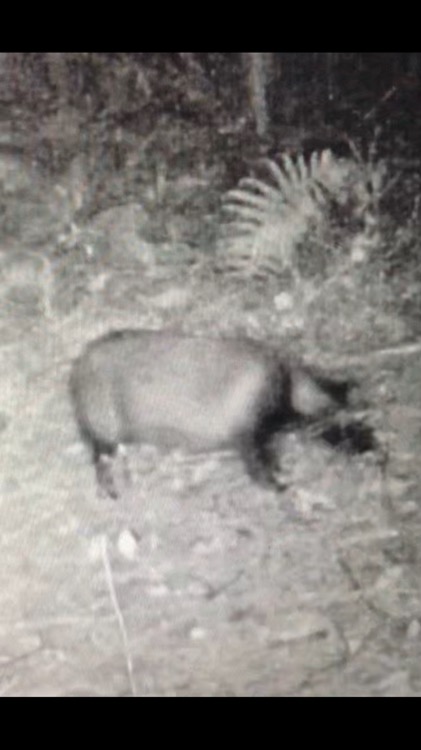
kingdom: Animalia
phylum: Chordata
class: Mammalia
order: Carnivora
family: Canidae
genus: Nyctereutes
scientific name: Nyctereutes procyonoides
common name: Mårhund
